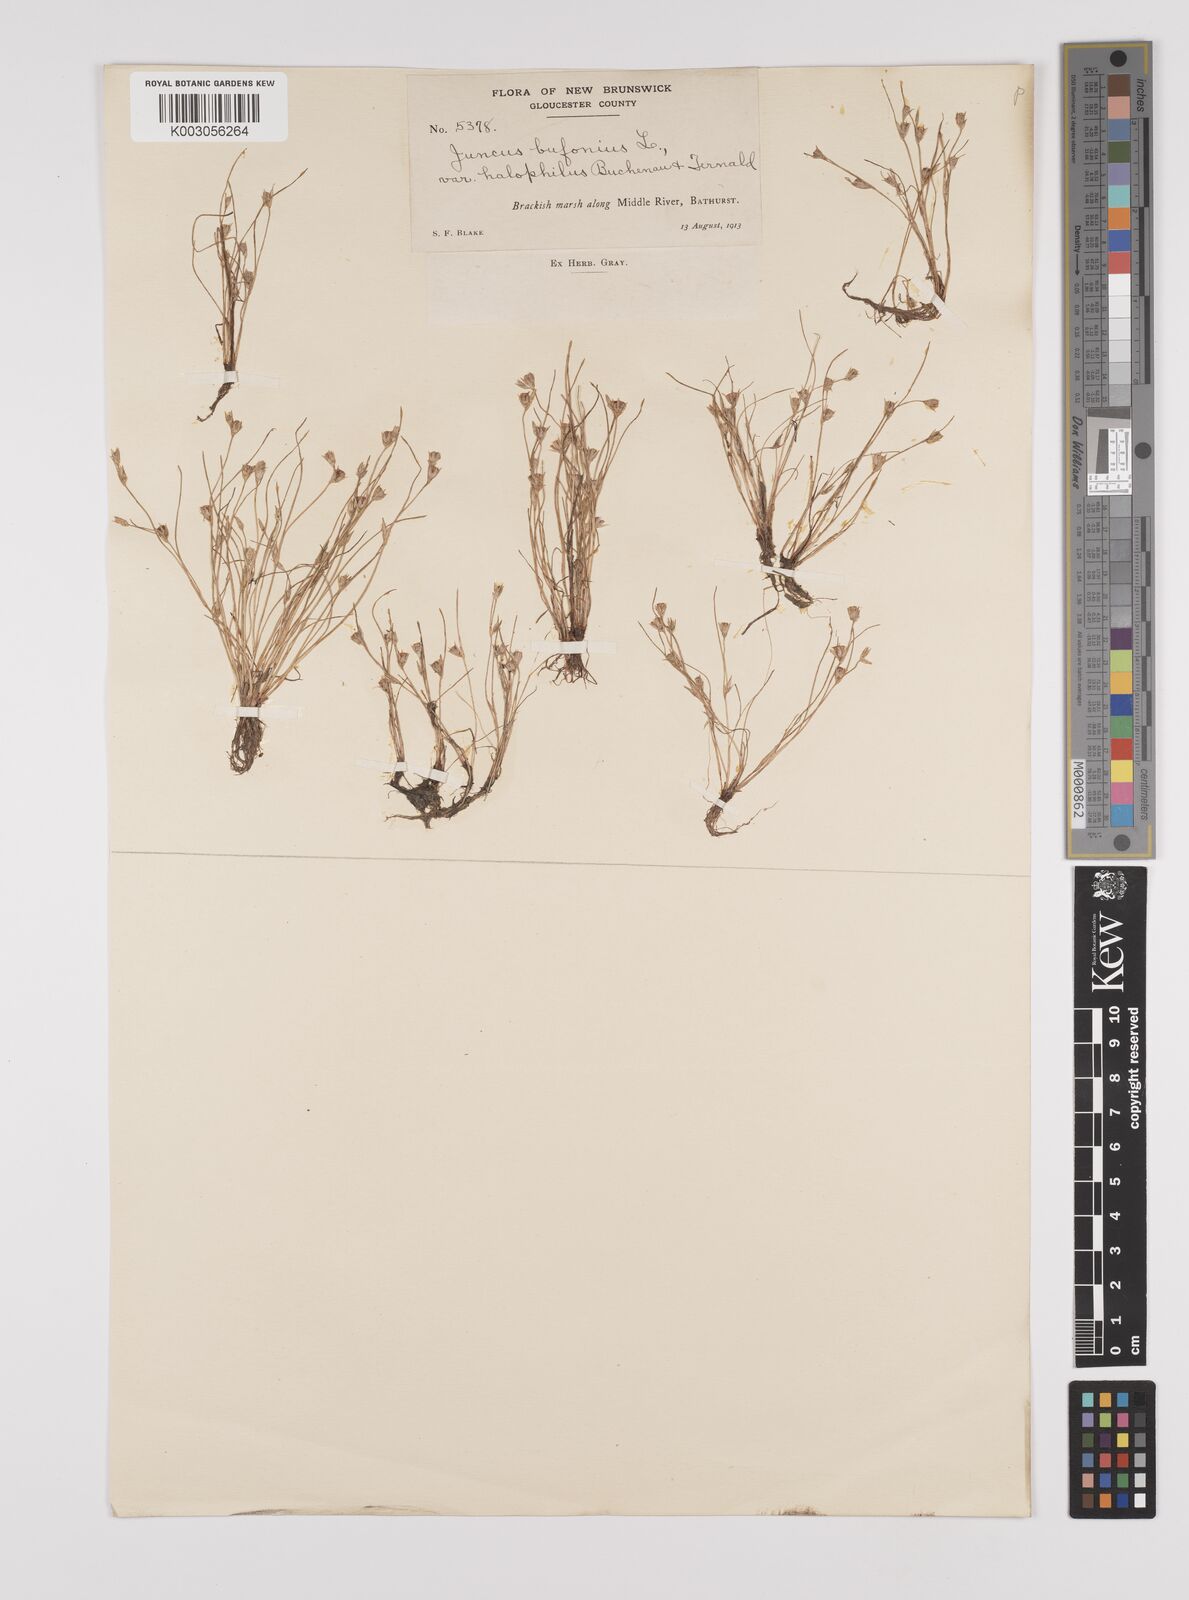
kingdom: Plantae
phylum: Tracheophyta
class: Liliopsida
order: Poales
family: Juncaceae
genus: Juncus
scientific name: Juncus ranarius
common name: Frog rush
